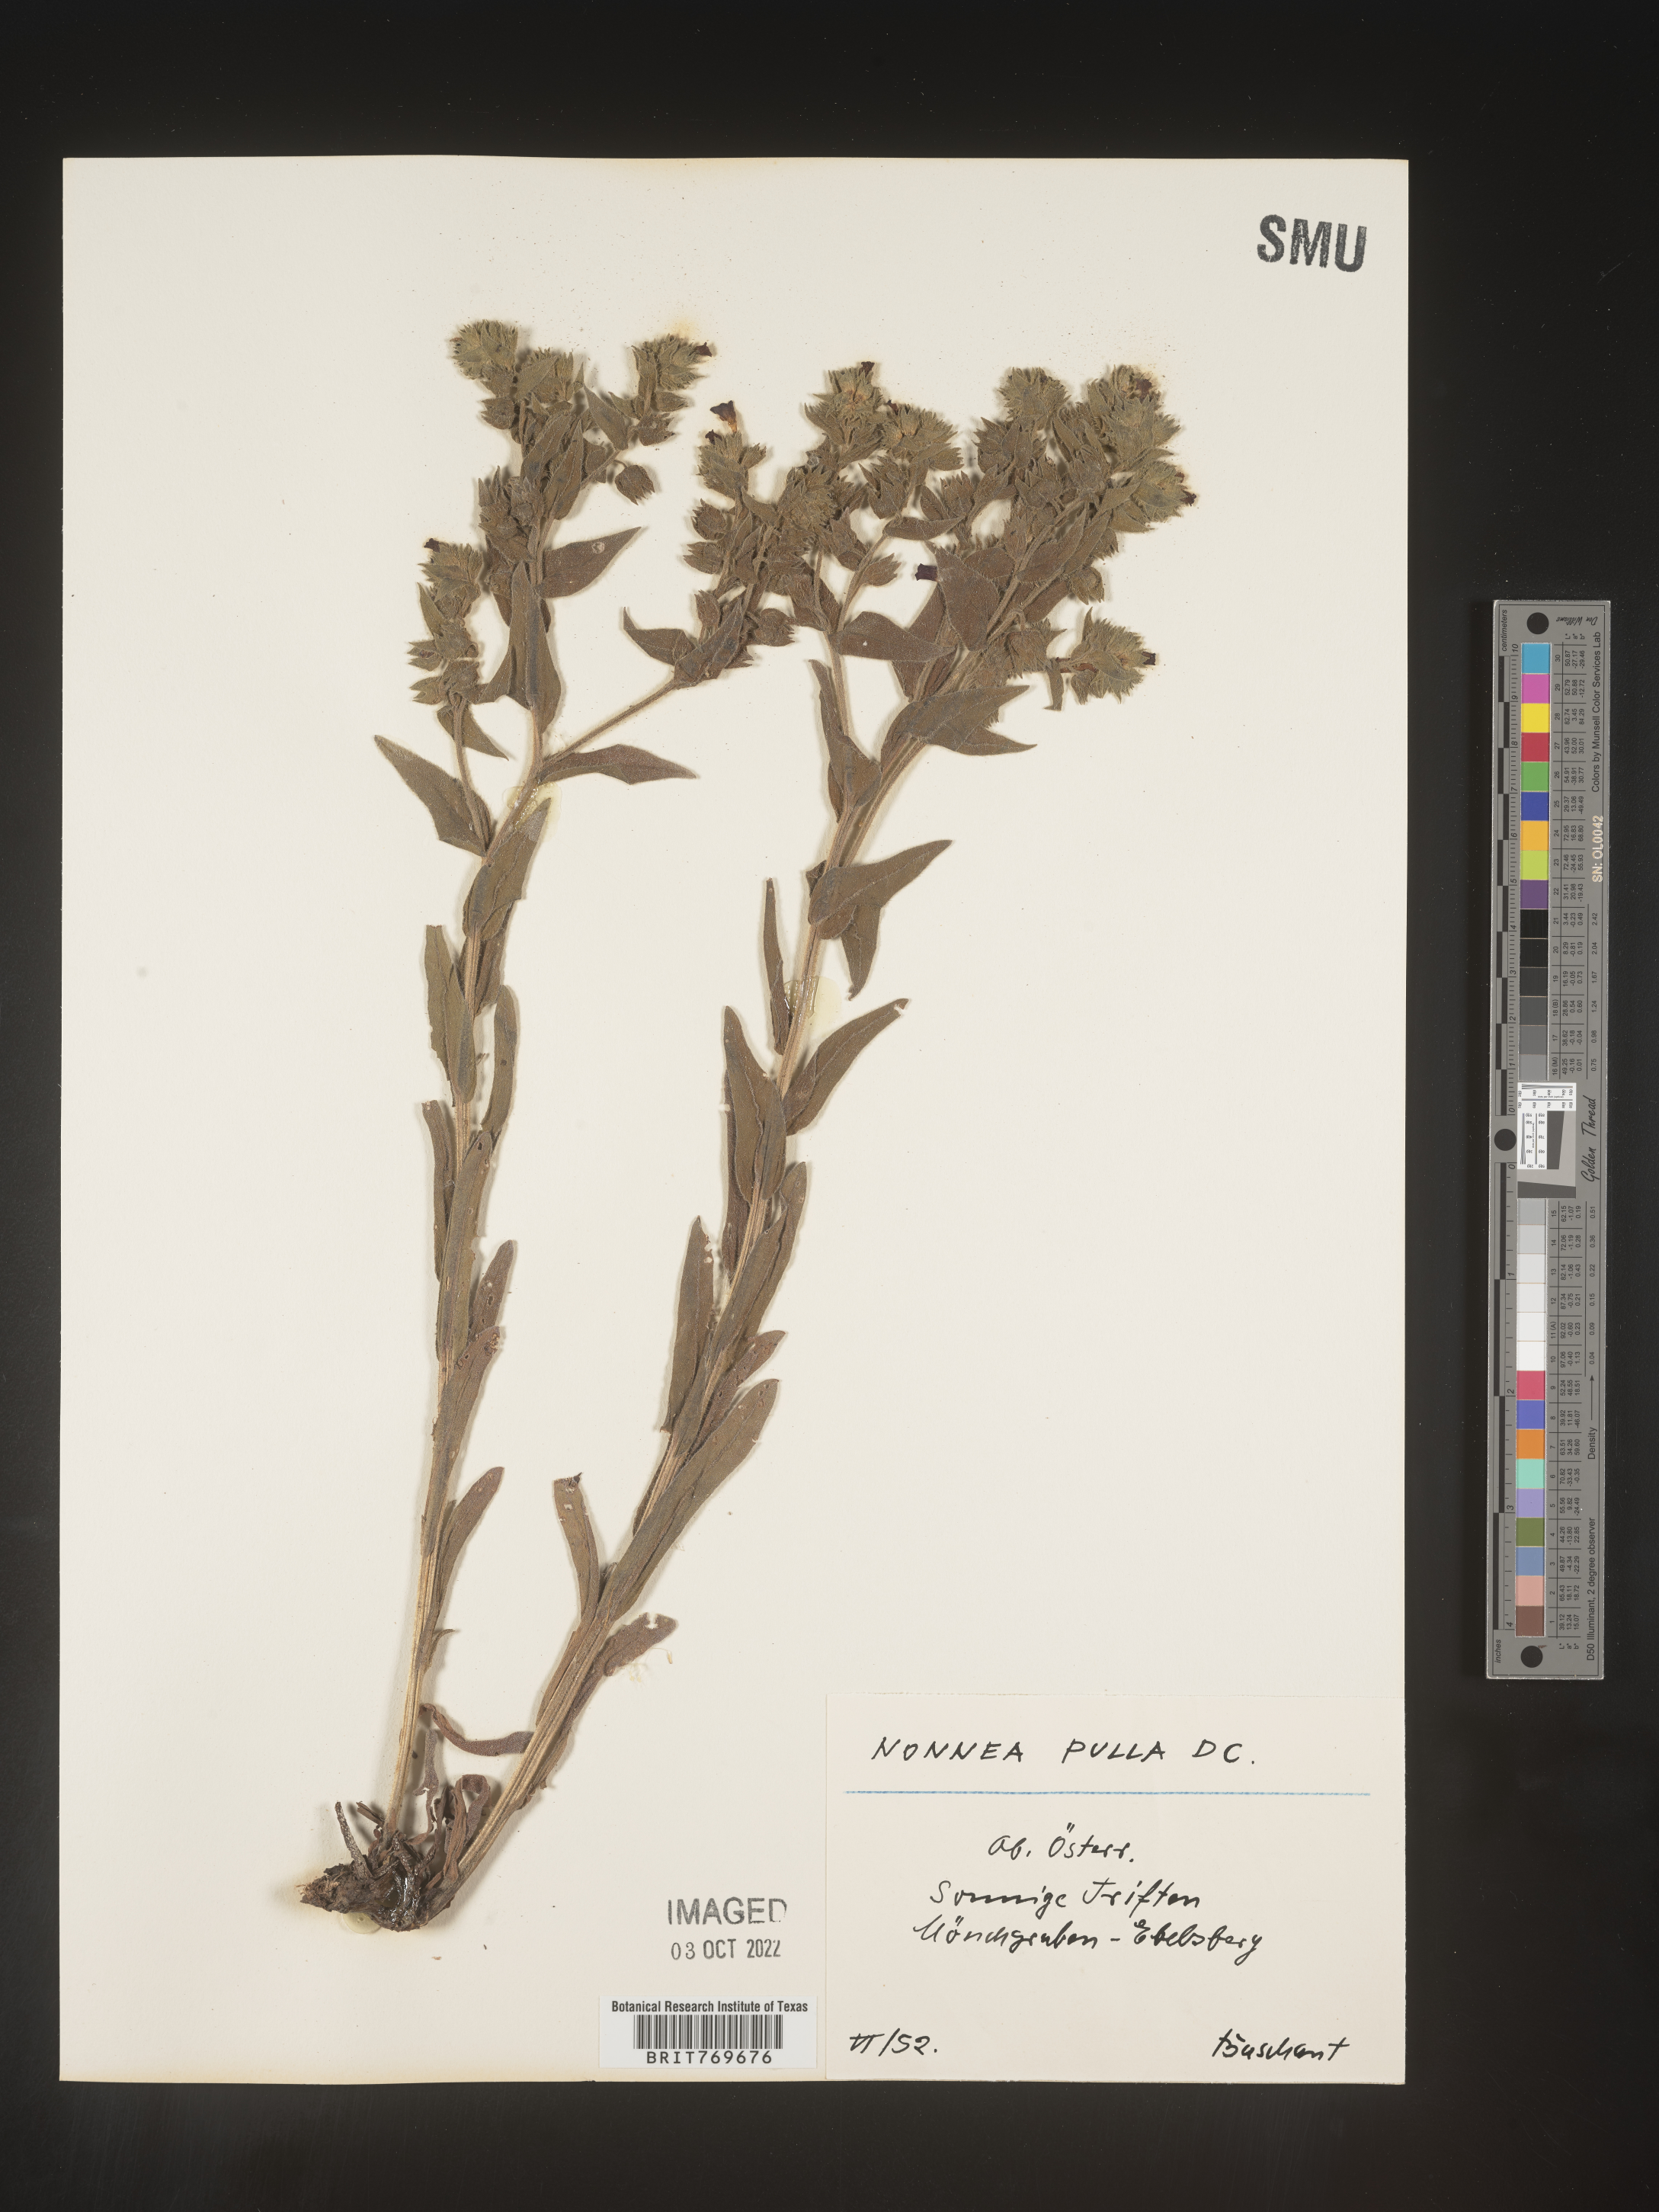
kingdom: Plantae
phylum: Tracheophyta
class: Magnoliopsida
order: Boraginales
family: Boraginaceae
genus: Nonea
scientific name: Nonea lutea
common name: Yellow nonea
